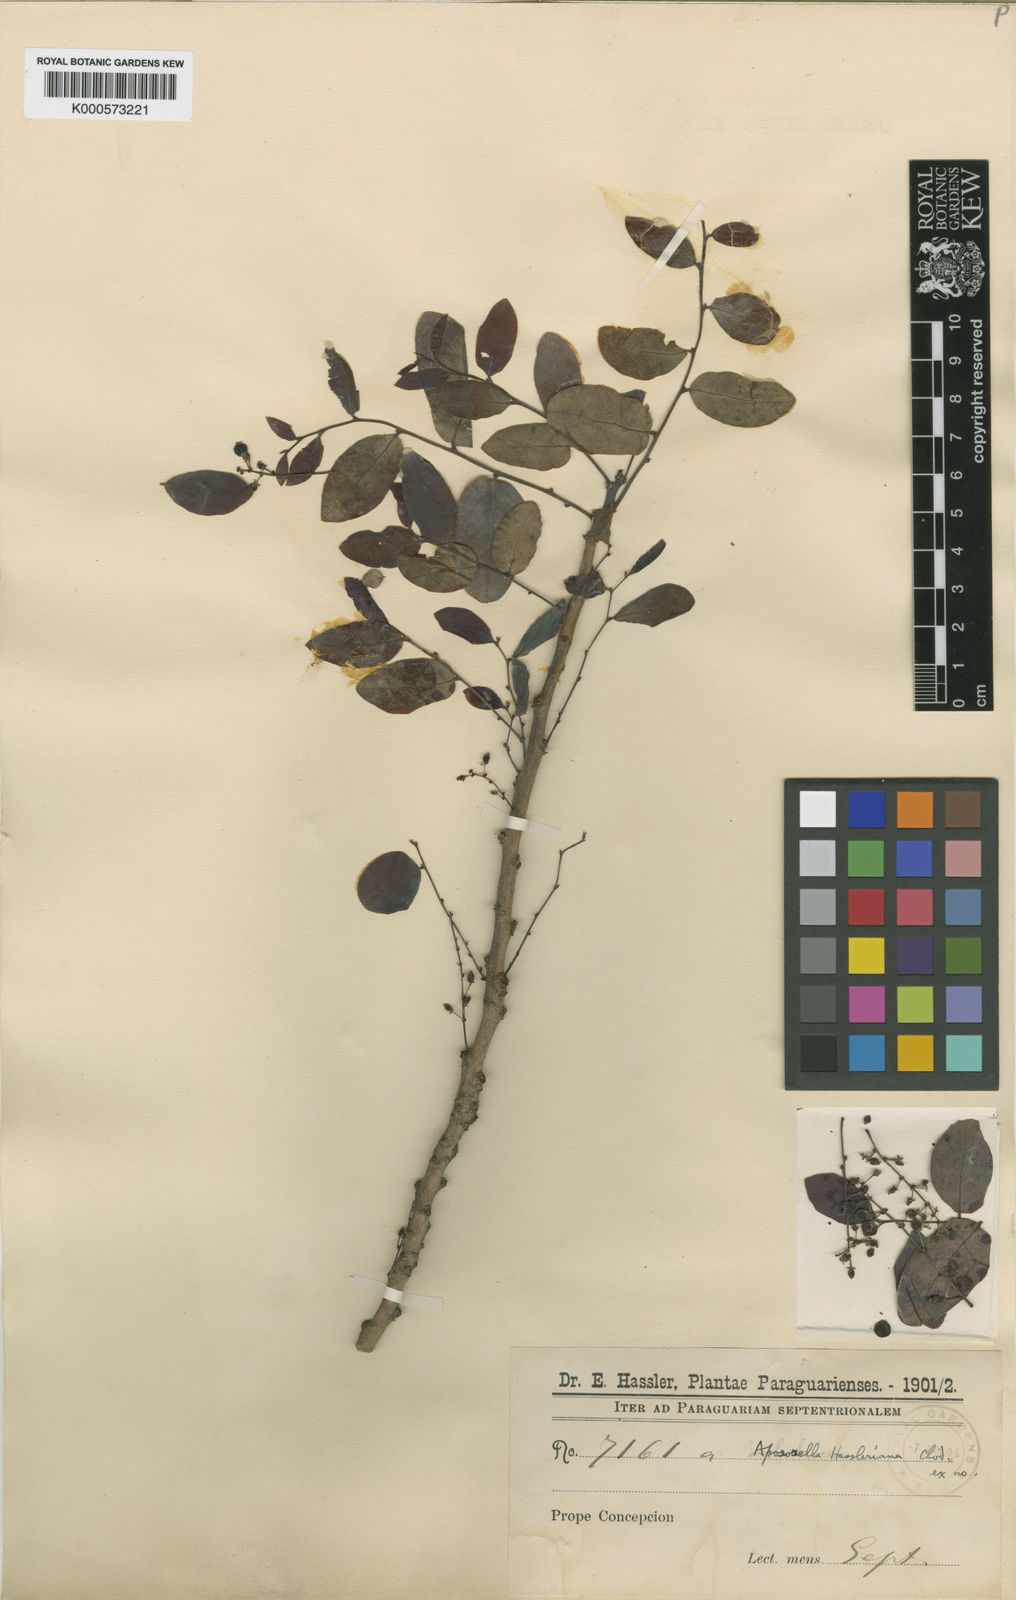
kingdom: Plantae
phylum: Tracheophyta
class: Magnoliopsida
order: Malpighiales
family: Phyllanthaceae
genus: Phyllanthus
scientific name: Phyllanthus chacoensis
